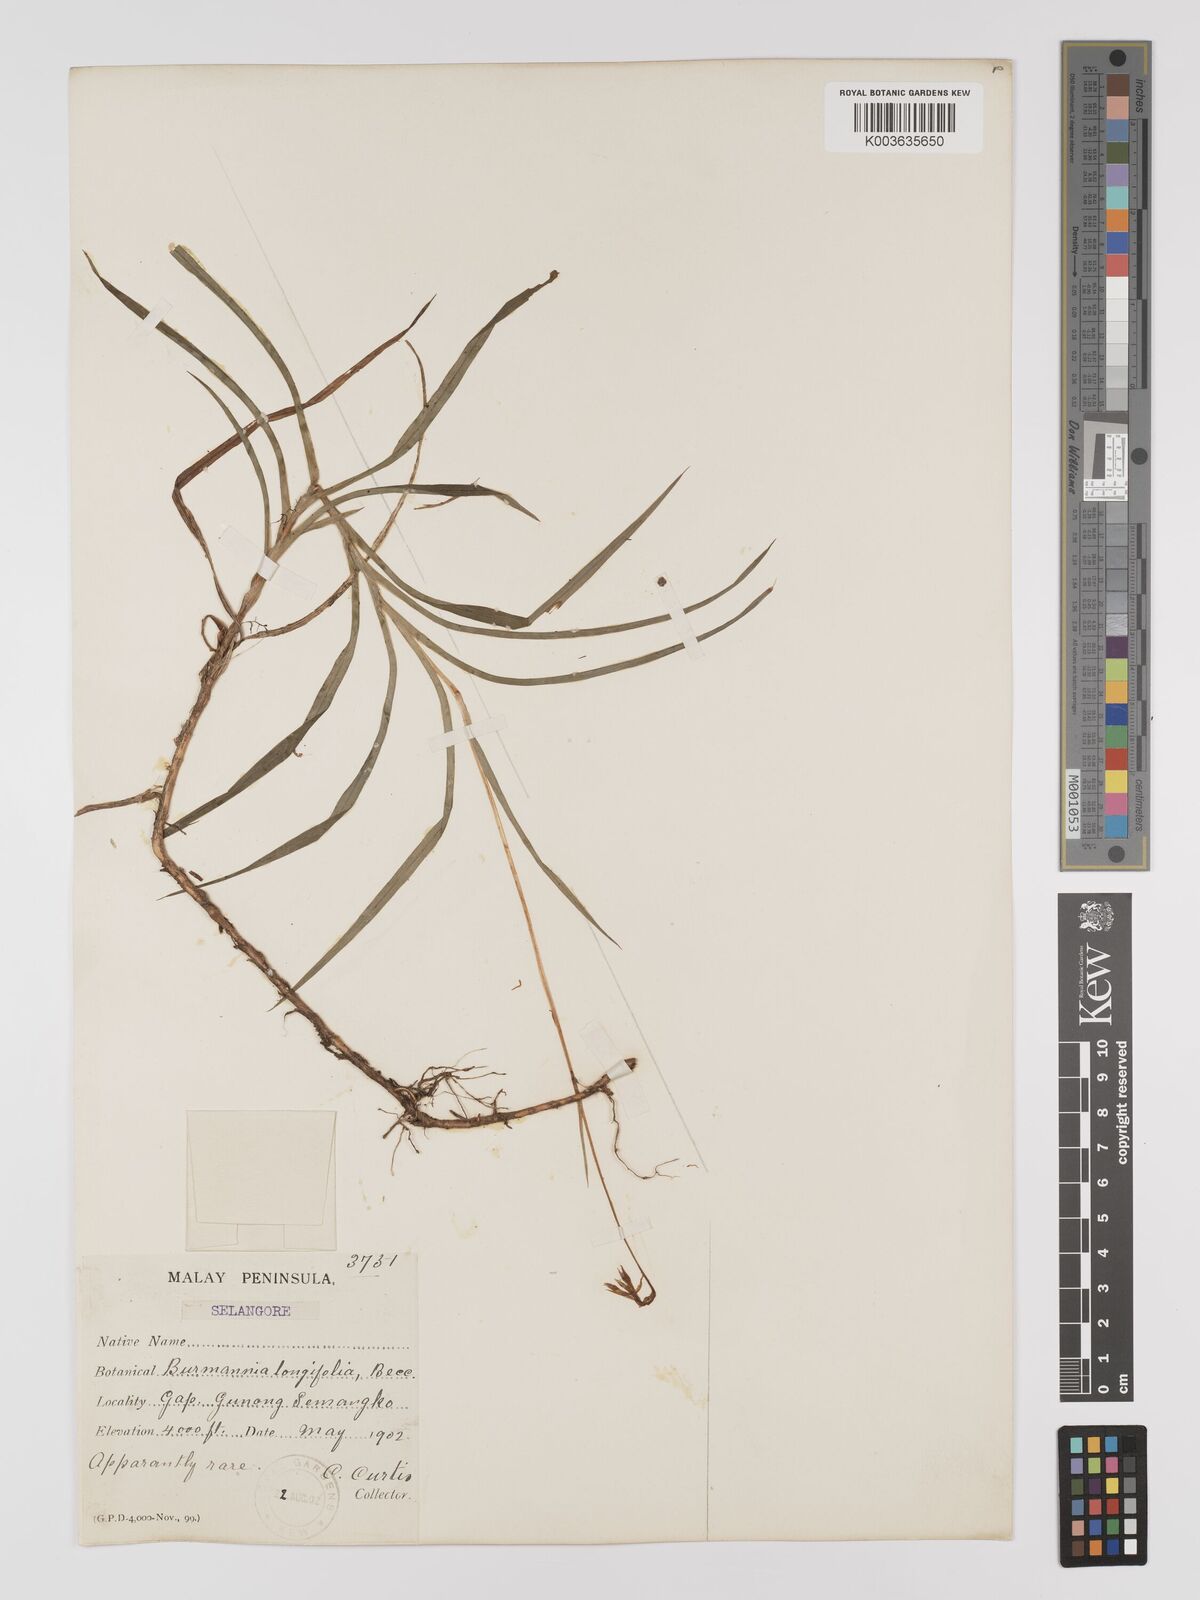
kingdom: Plantae
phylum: Tracheophyta
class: Liliopsida
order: Dioscoreales
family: Burmanniaceae
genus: Burmannia
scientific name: Burmannia longifolia
